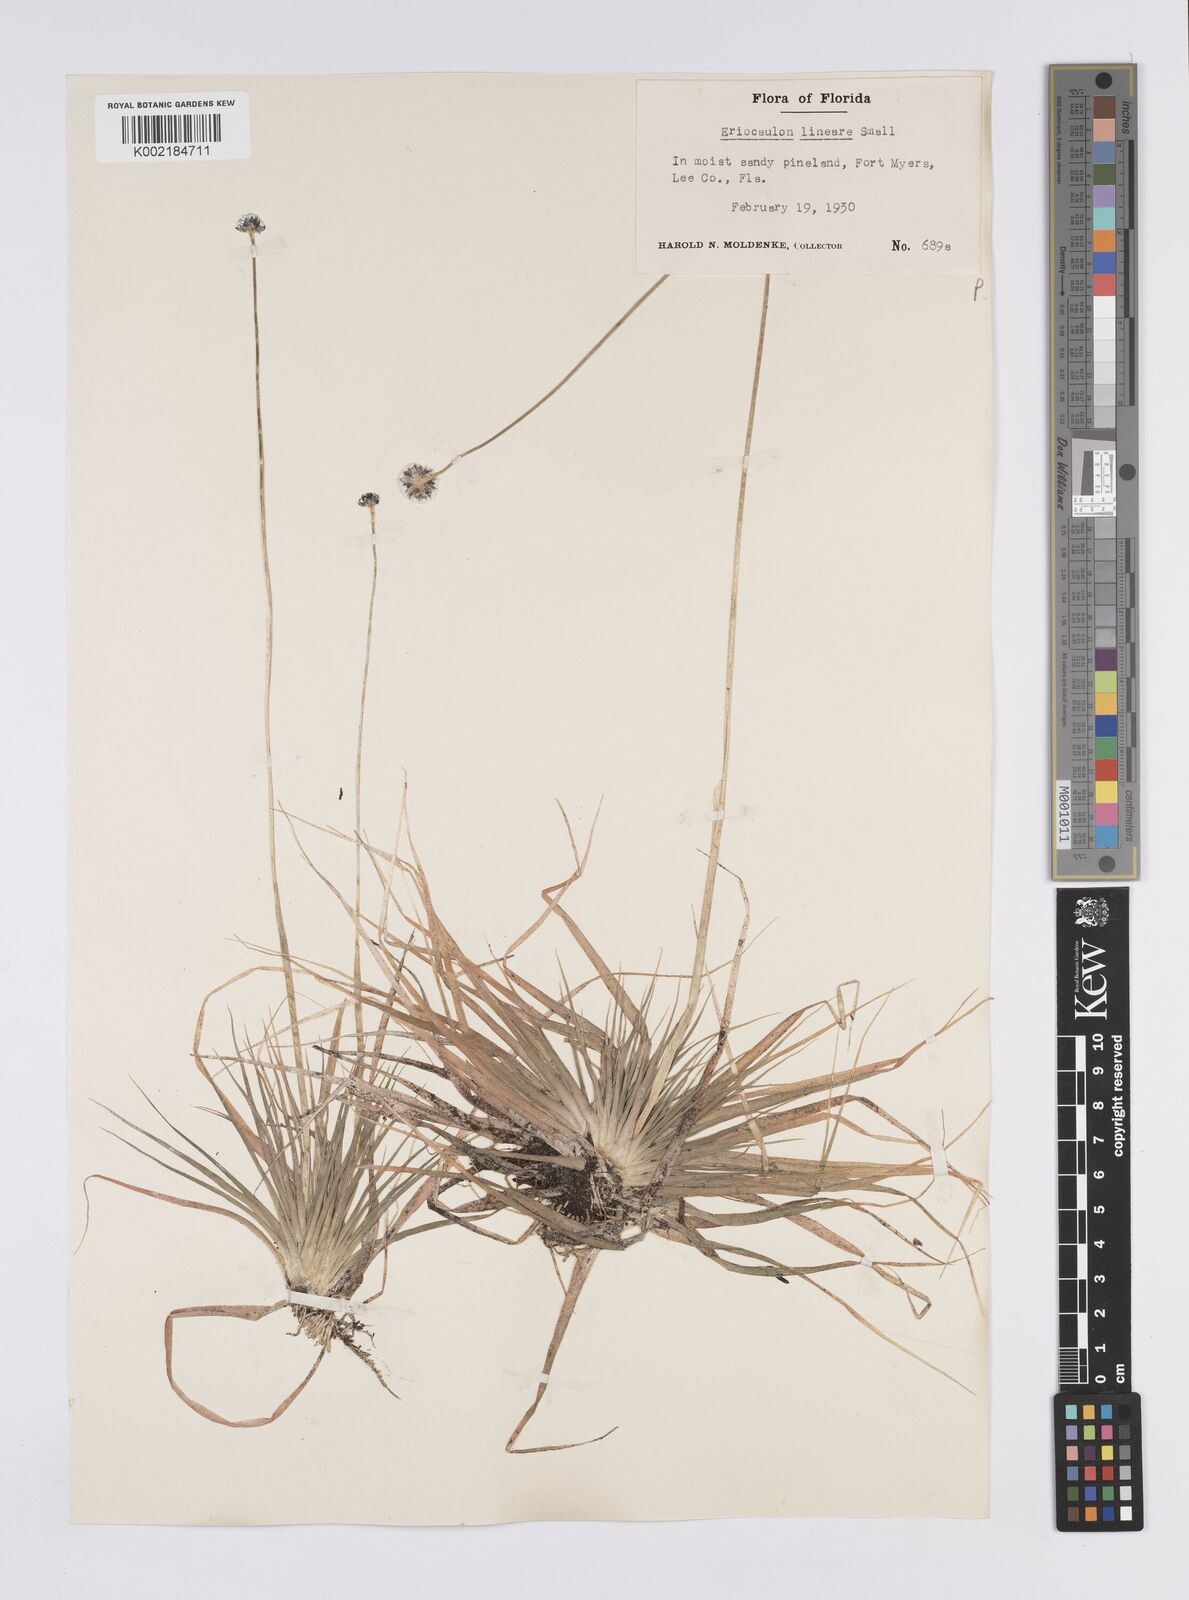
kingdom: Plantae
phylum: Tracheophyta
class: Liliopsida
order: Poales
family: Eriocaulaceae
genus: Eriocaulon
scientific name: Eriocaulon lineare
